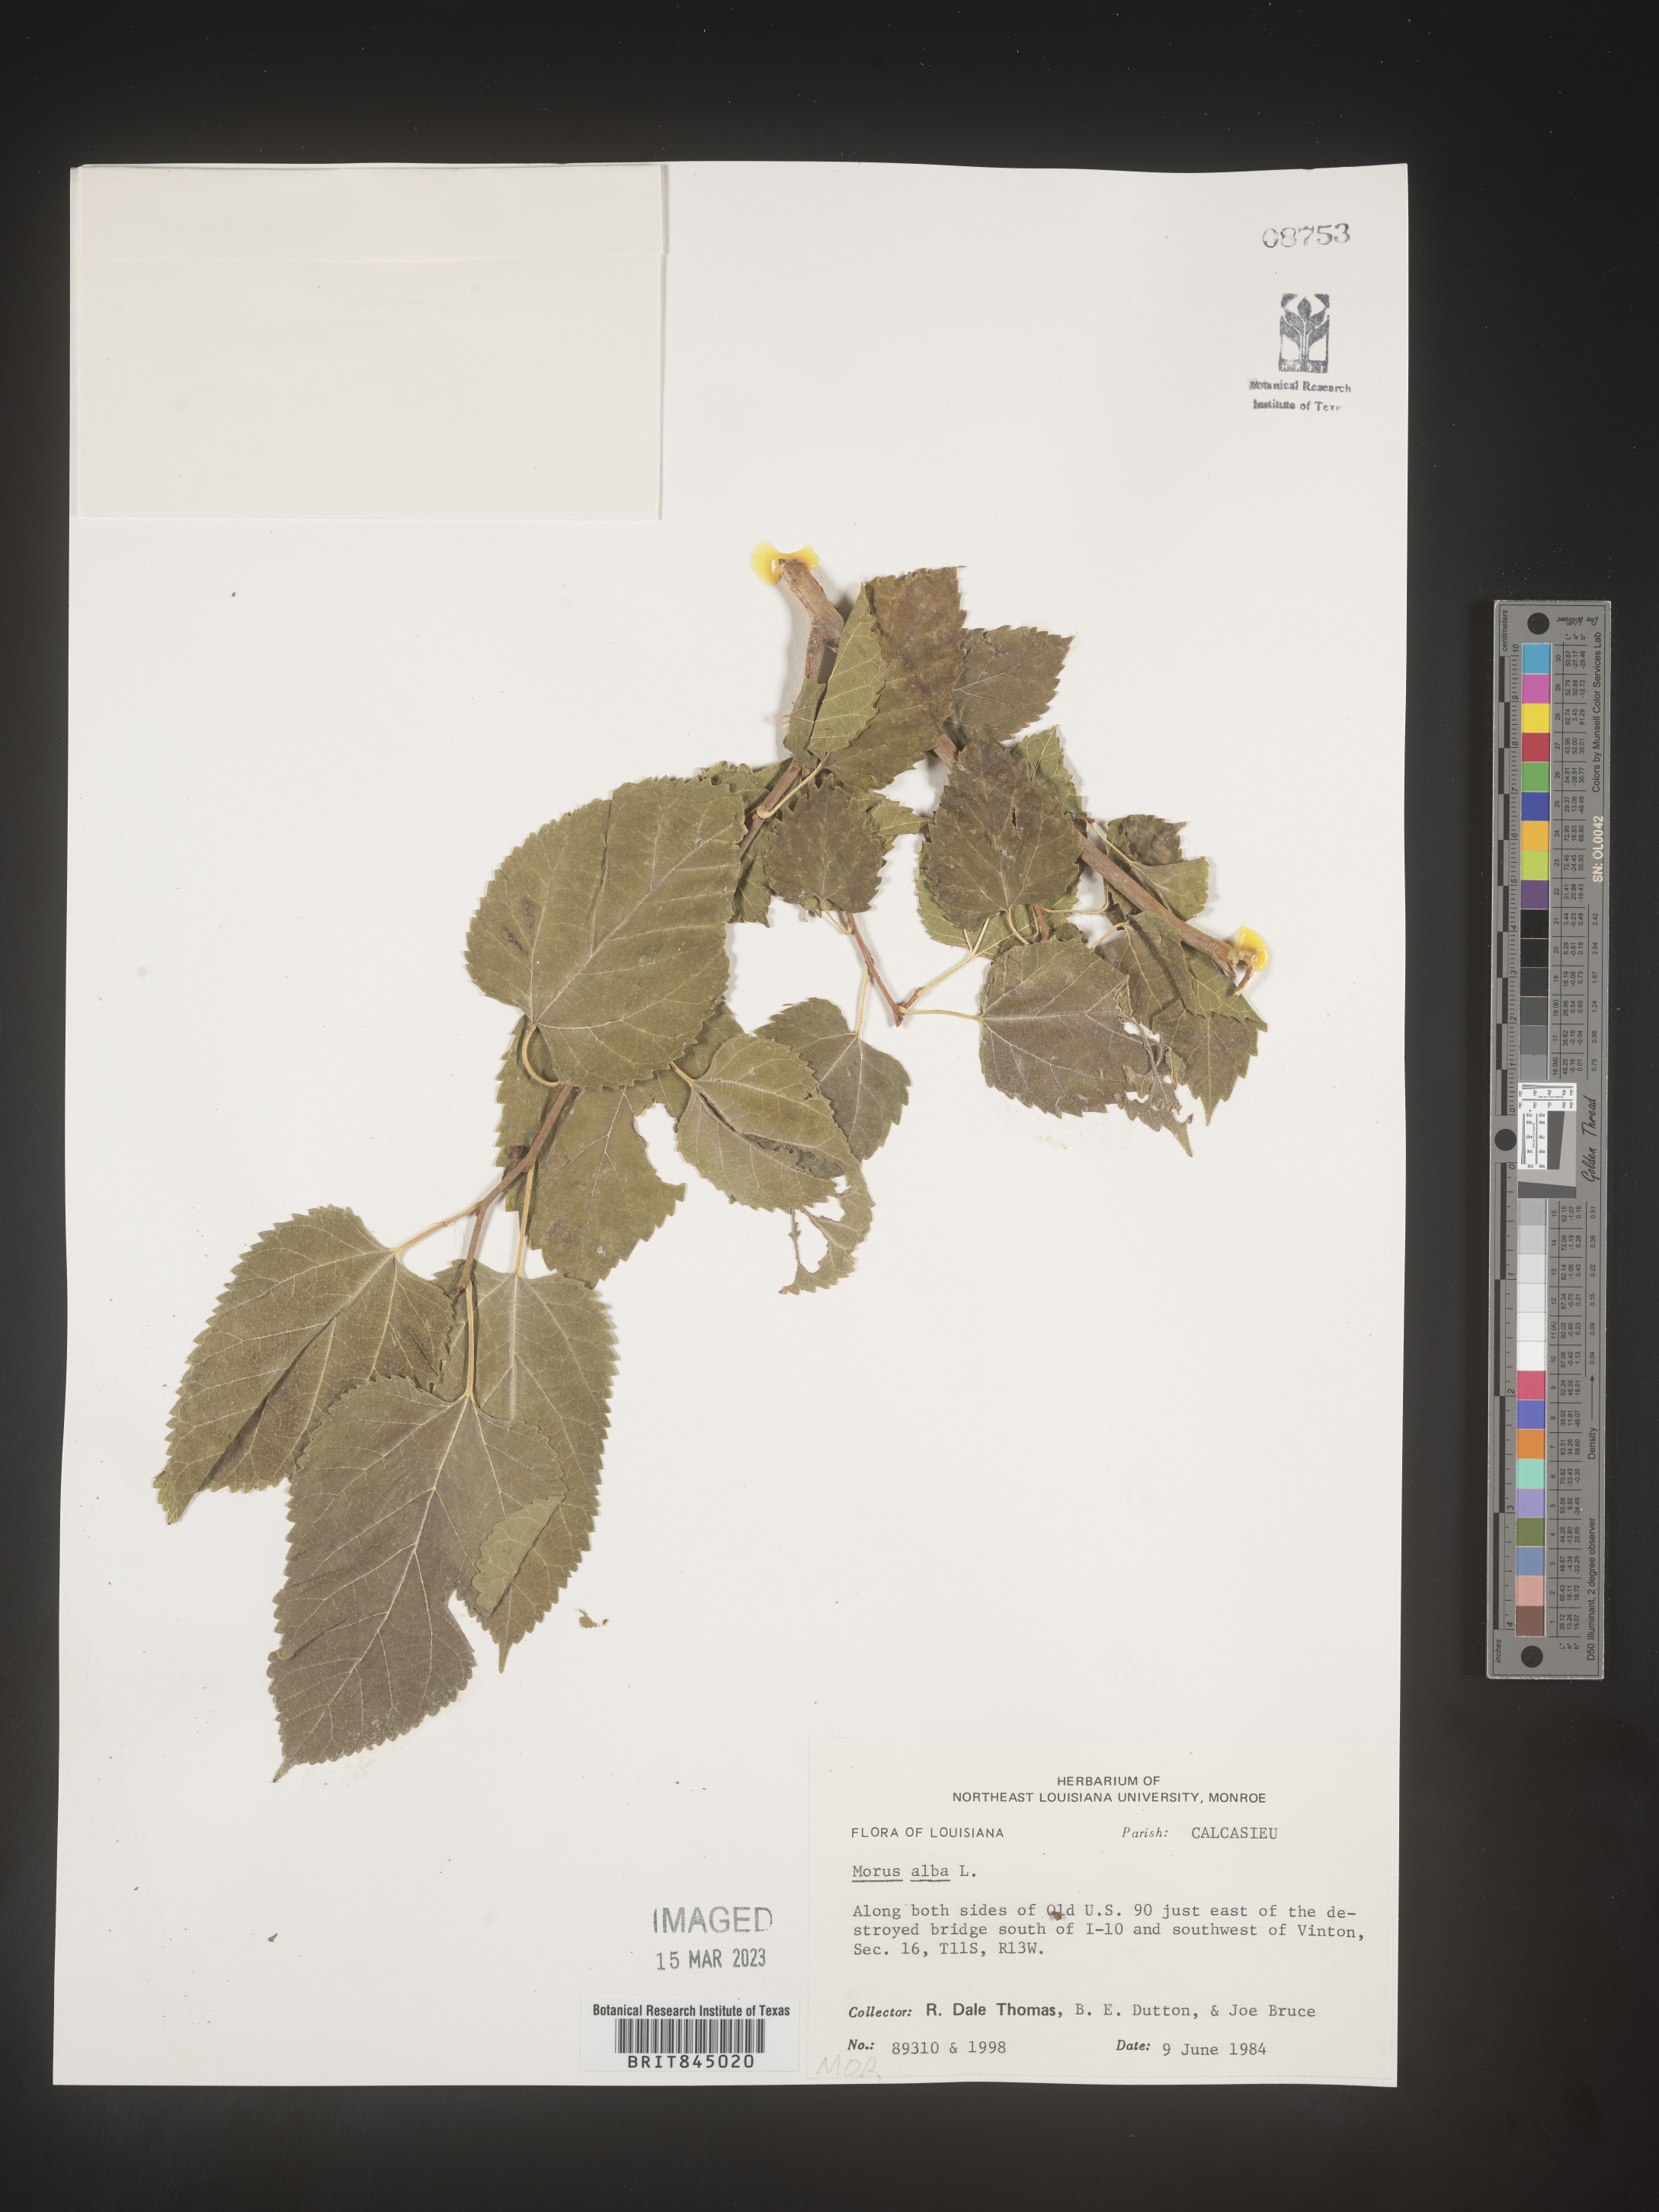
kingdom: Plantae
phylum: Tracheophyta
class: Magnoliopsida
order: Rosales
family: Moraceae
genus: Morus
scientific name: Morus alba
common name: White mulberry
